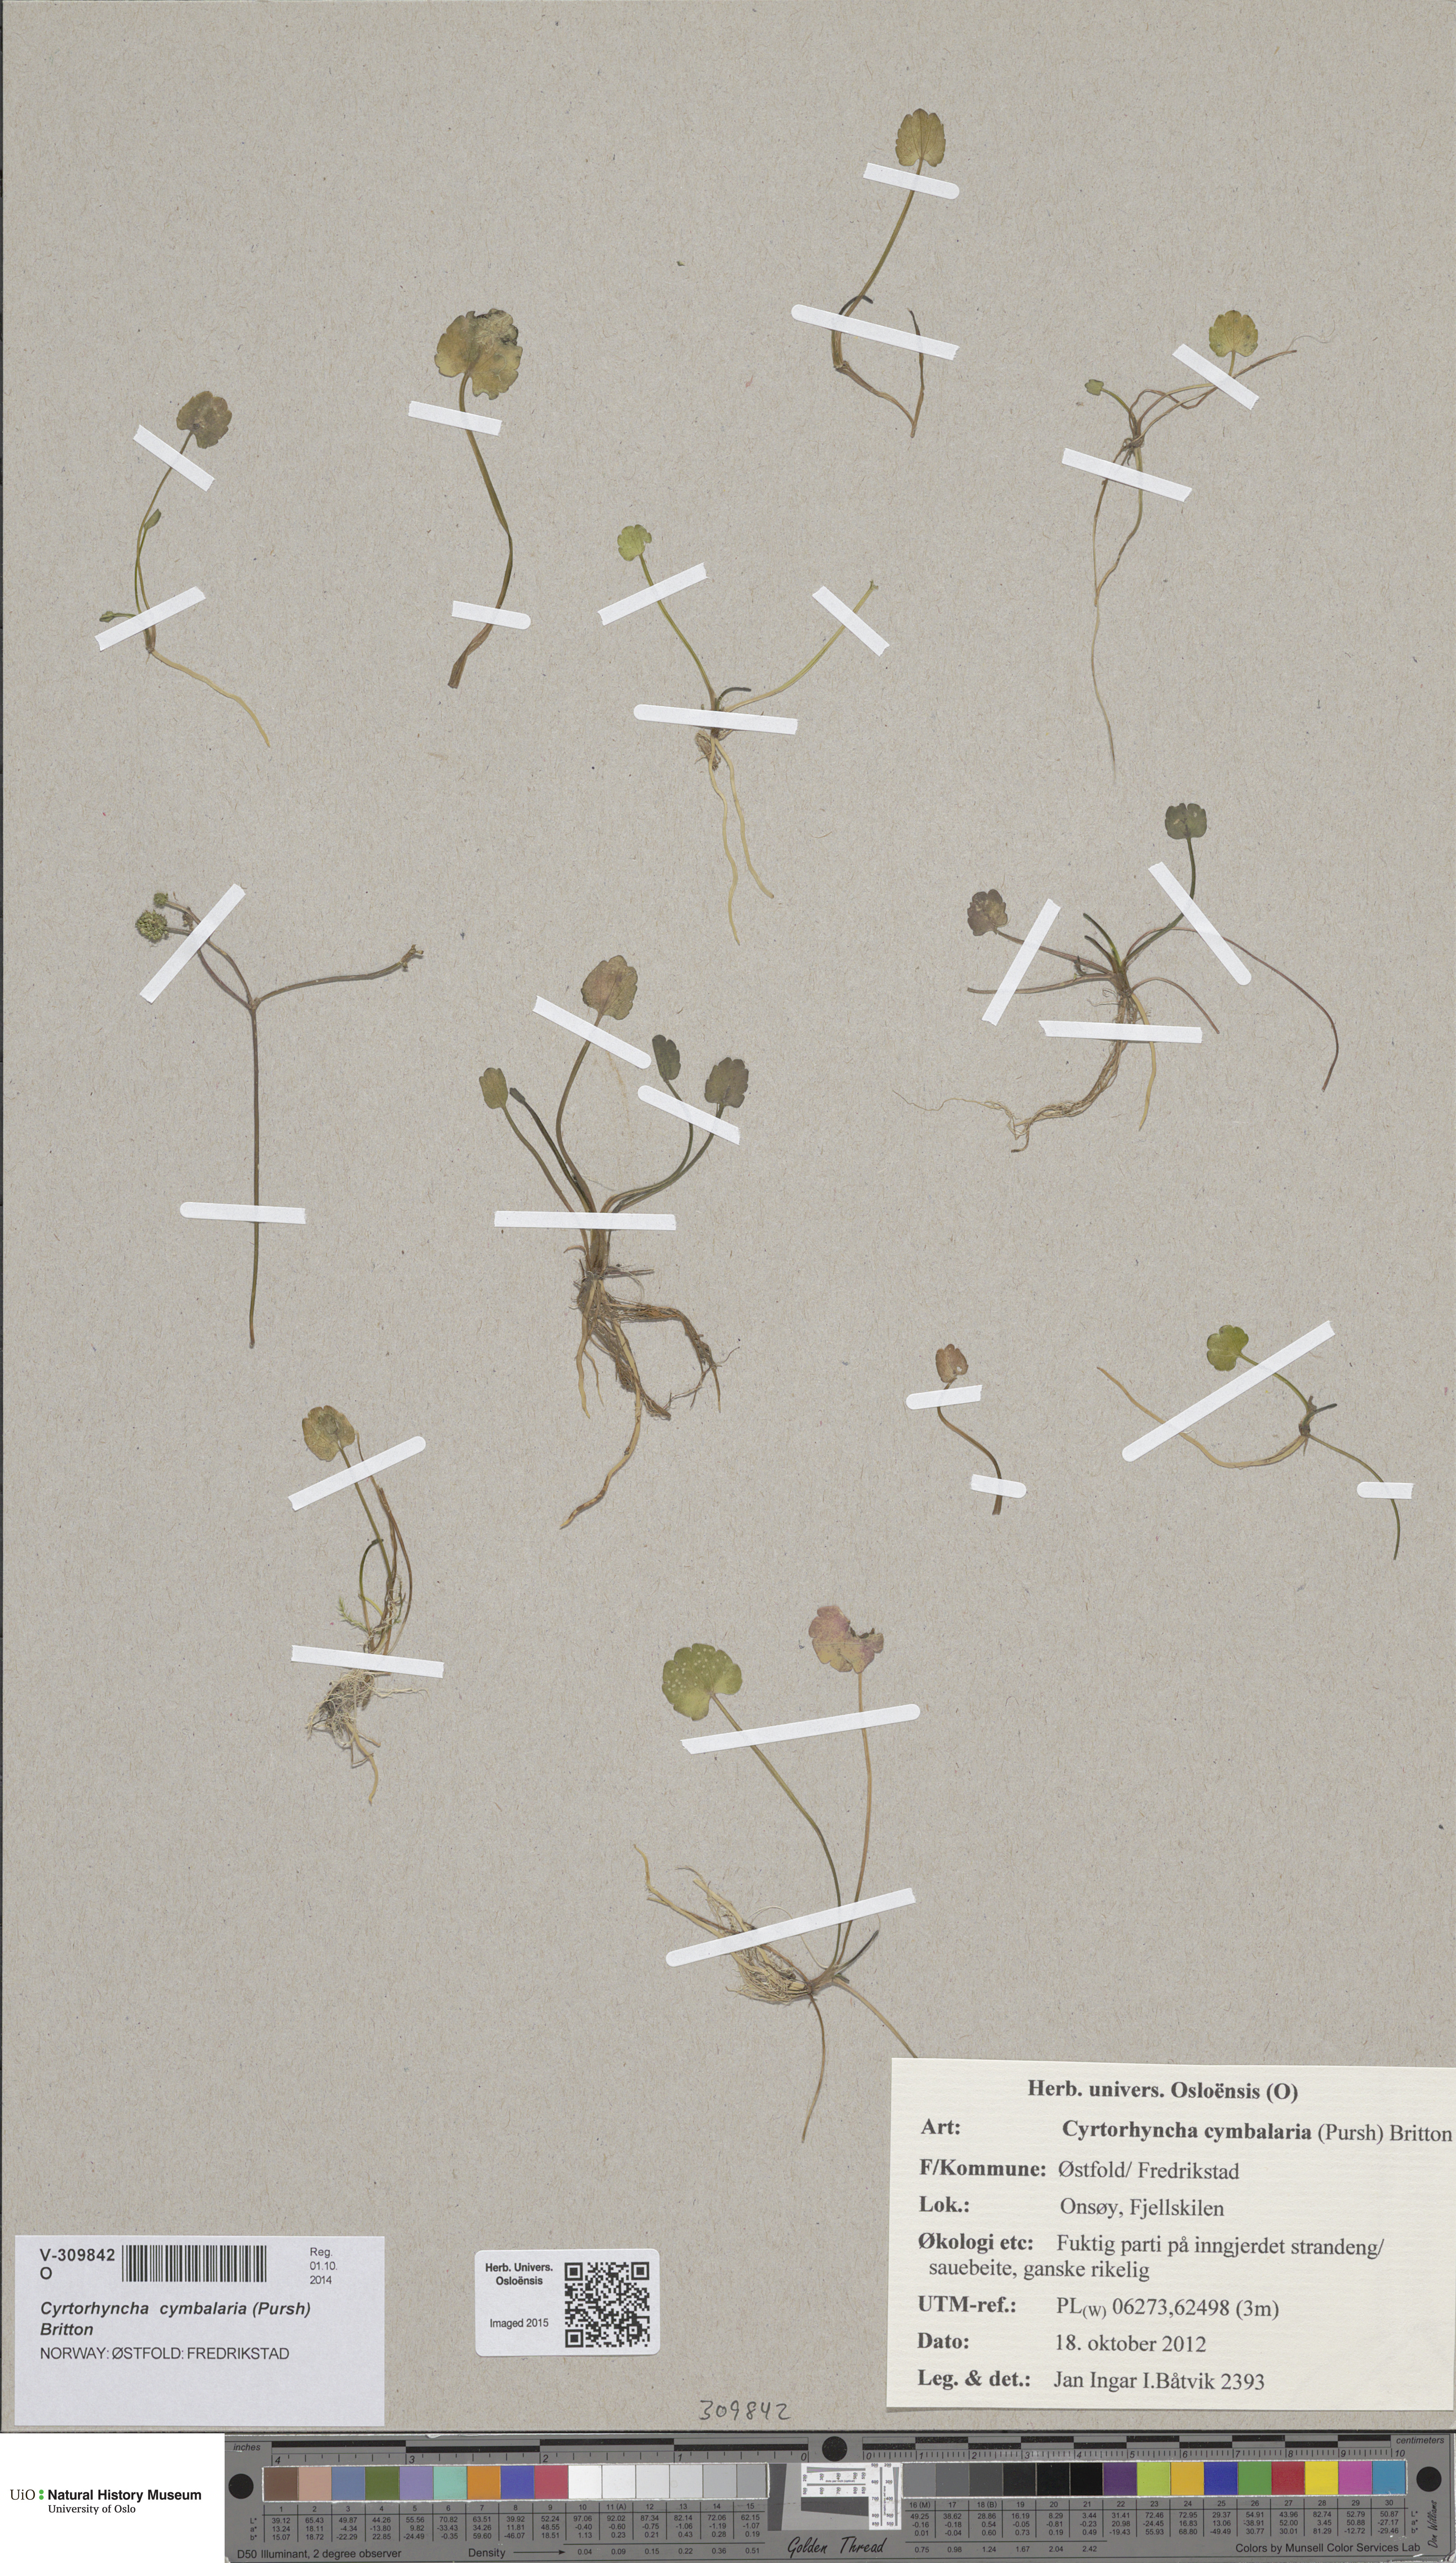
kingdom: Plantae
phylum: Tracheophyta
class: Magnoliopsida
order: Ranunculales
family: Ranunculaceae
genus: Halerpestes
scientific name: Halerpestes cymbalaria
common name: Seaside crowfoot
